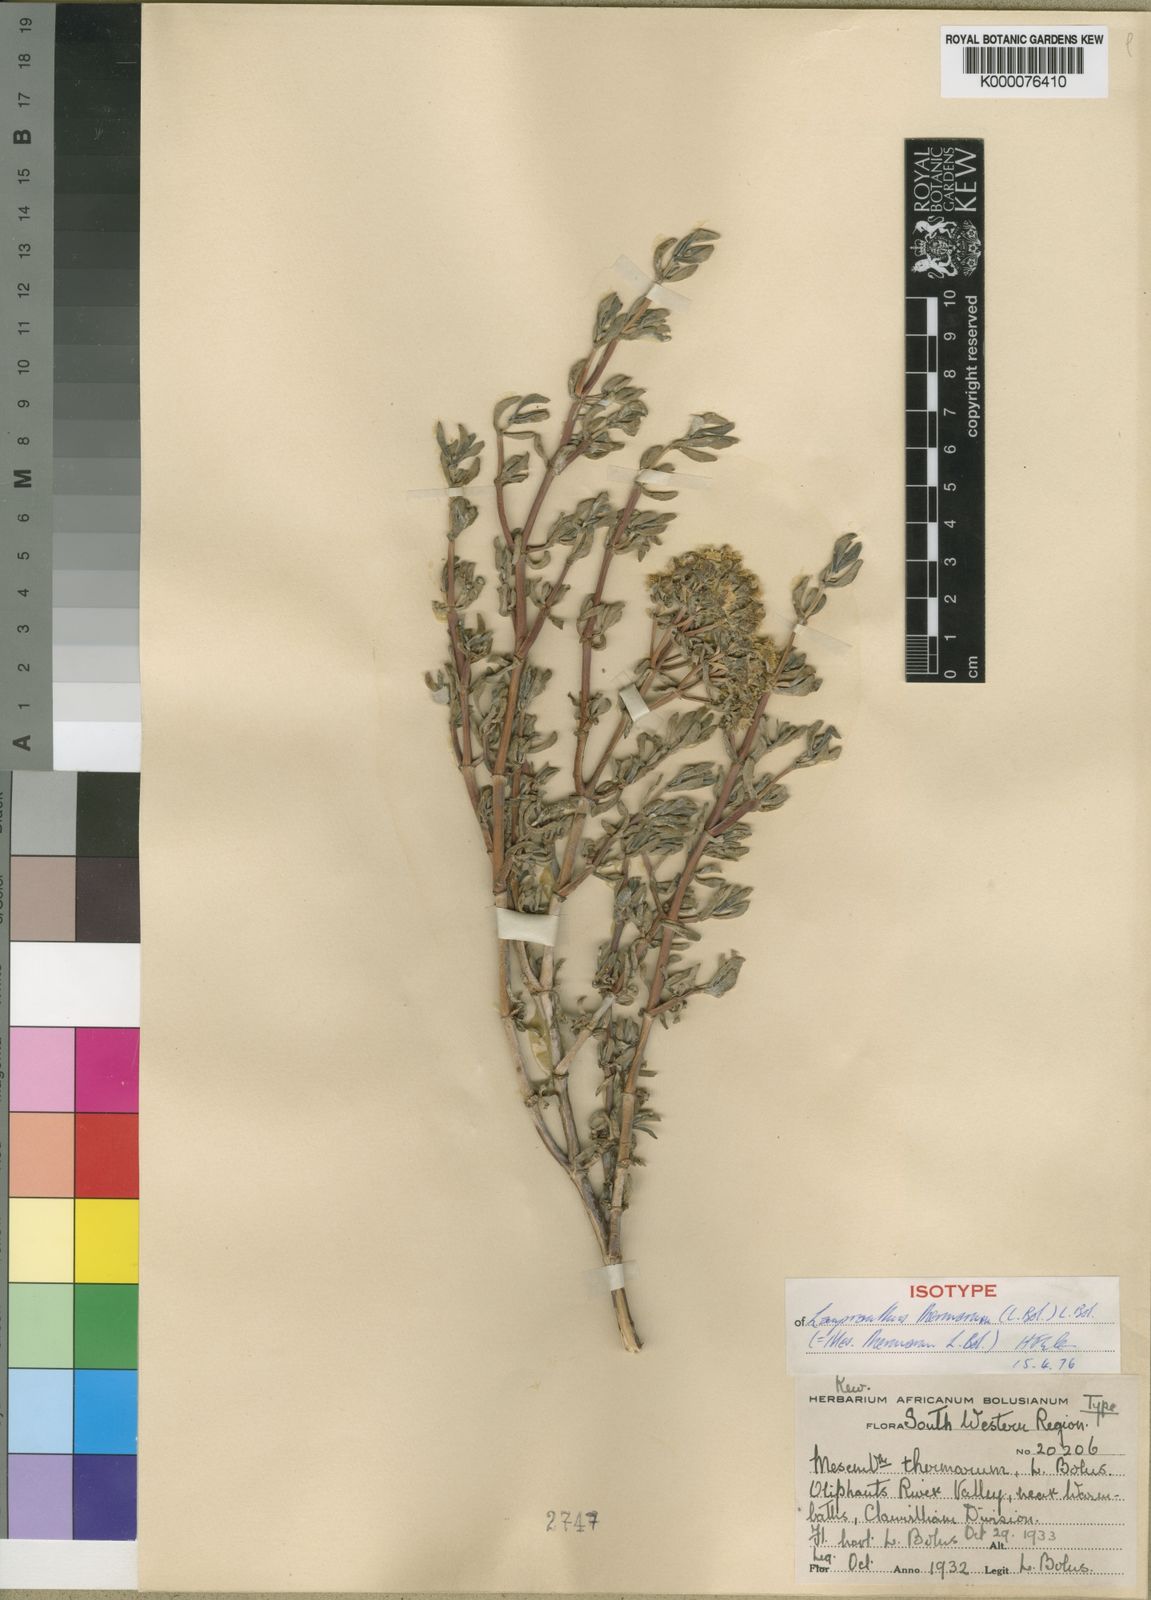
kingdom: Plantae
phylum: Tracheophyta
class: Magnoliopsida
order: Caryophyllales
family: Aizoaceae
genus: Oscularia
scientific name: Oscularia thermarum
